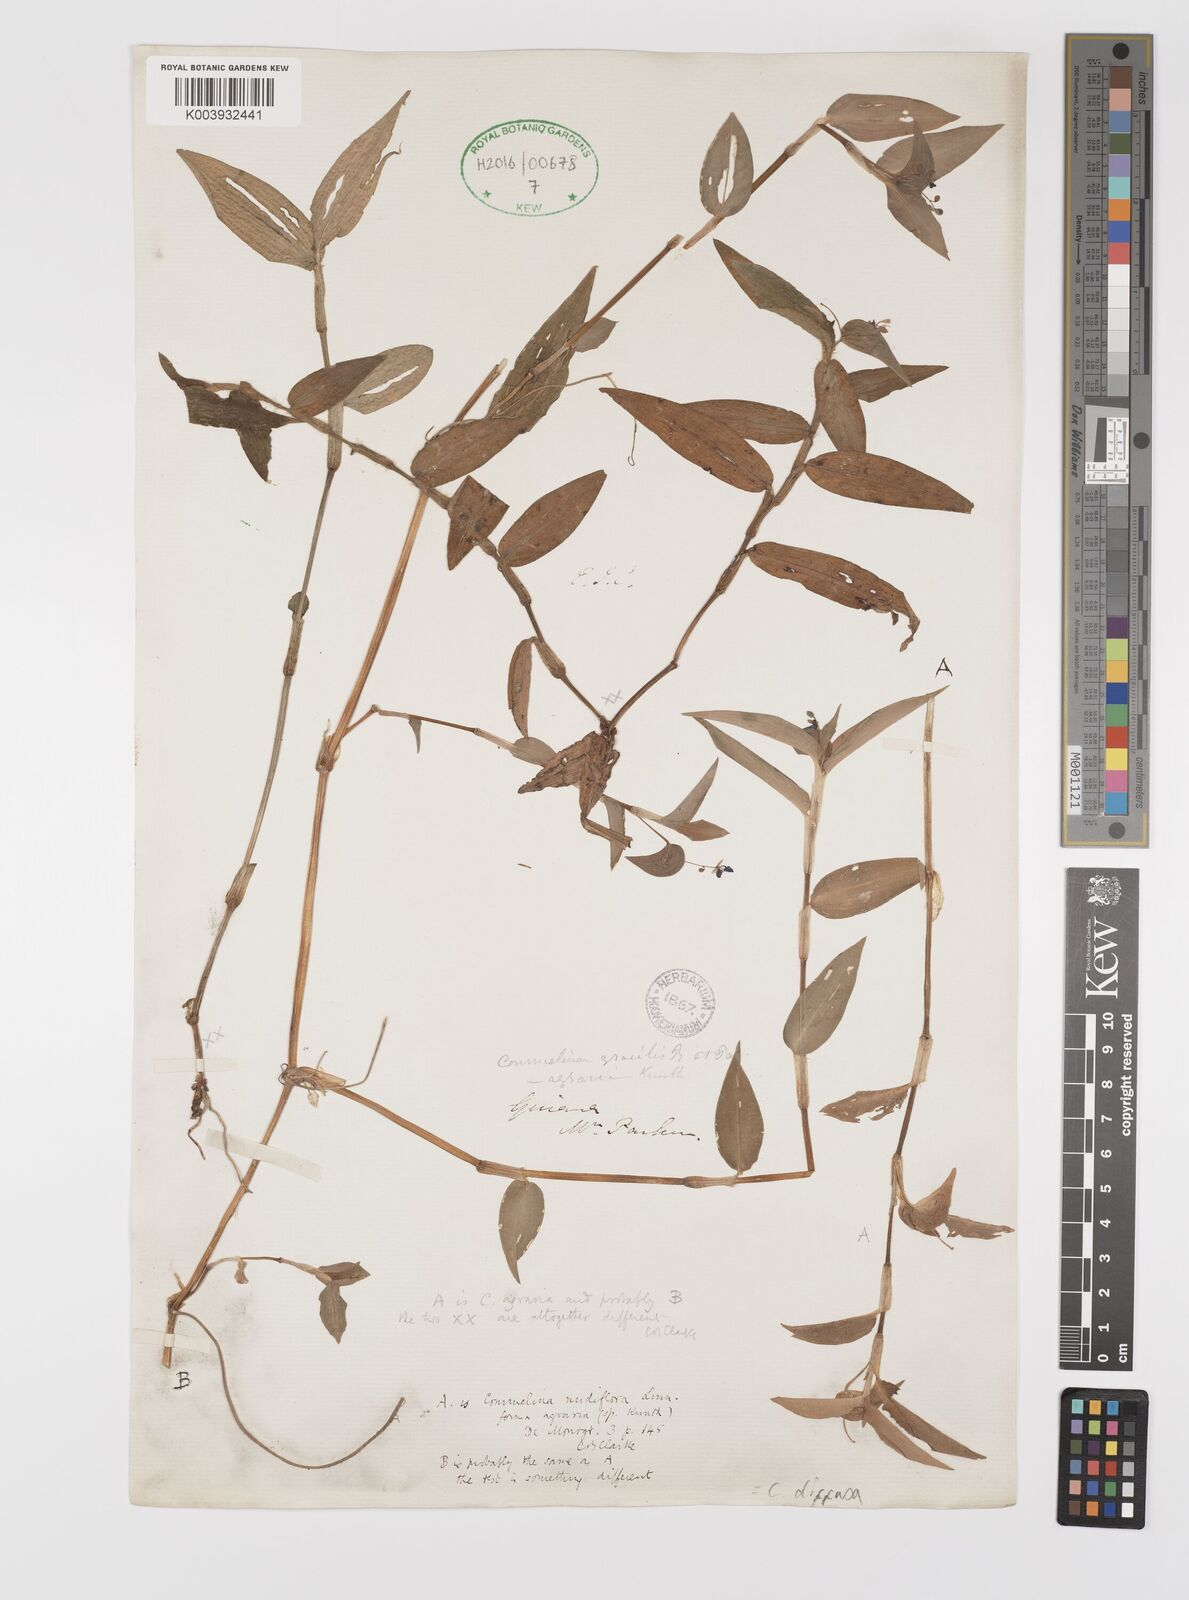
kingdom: Plantae
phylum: Tracheophyta
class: Liliopsida
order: Commelinales
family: Commelinaceae
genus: Commelina
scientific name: Commelina diffusa
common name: Climbing dayflower
